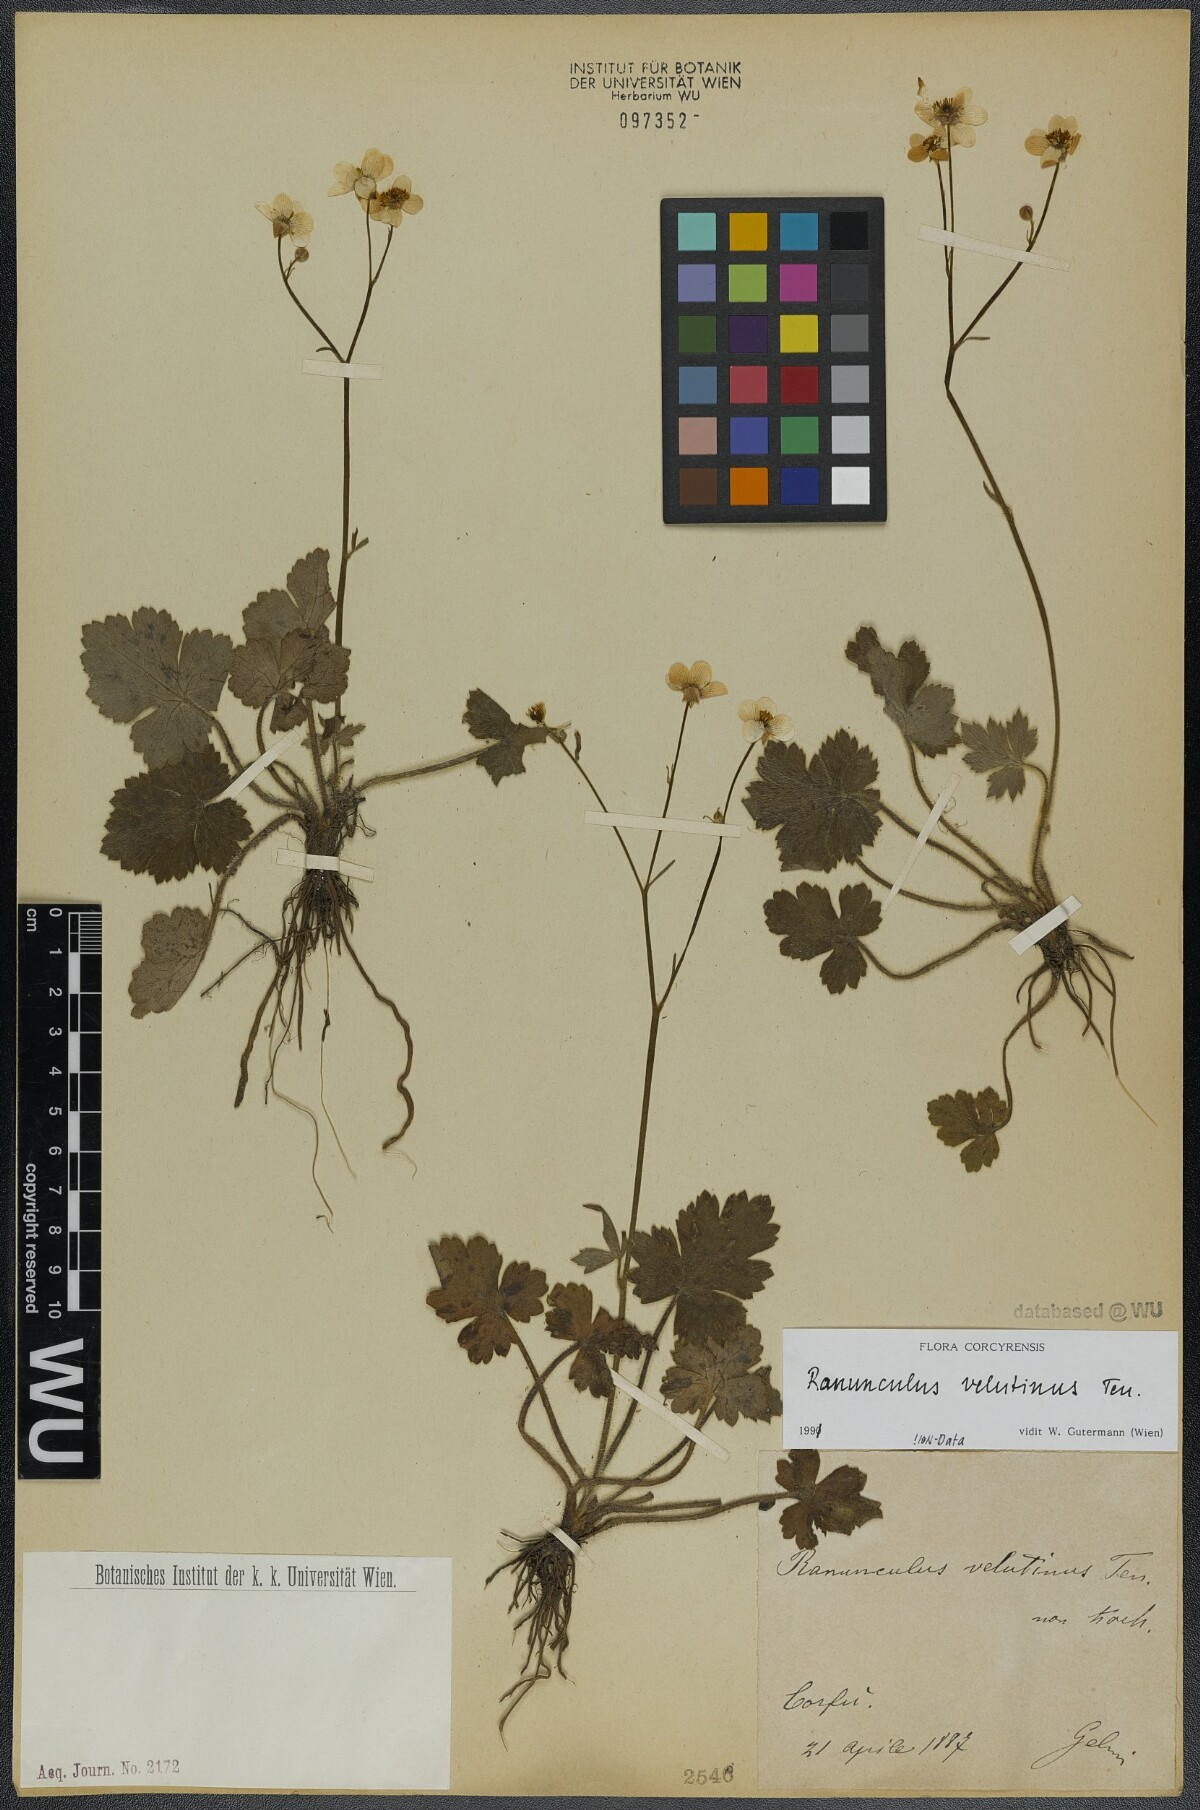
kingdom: Plantae
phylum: Tracheophyta
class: Magnoliopsida
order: Ranunculales
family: Ranunculaceae
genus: Ranunculus
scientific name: Ranunculus velutinus
